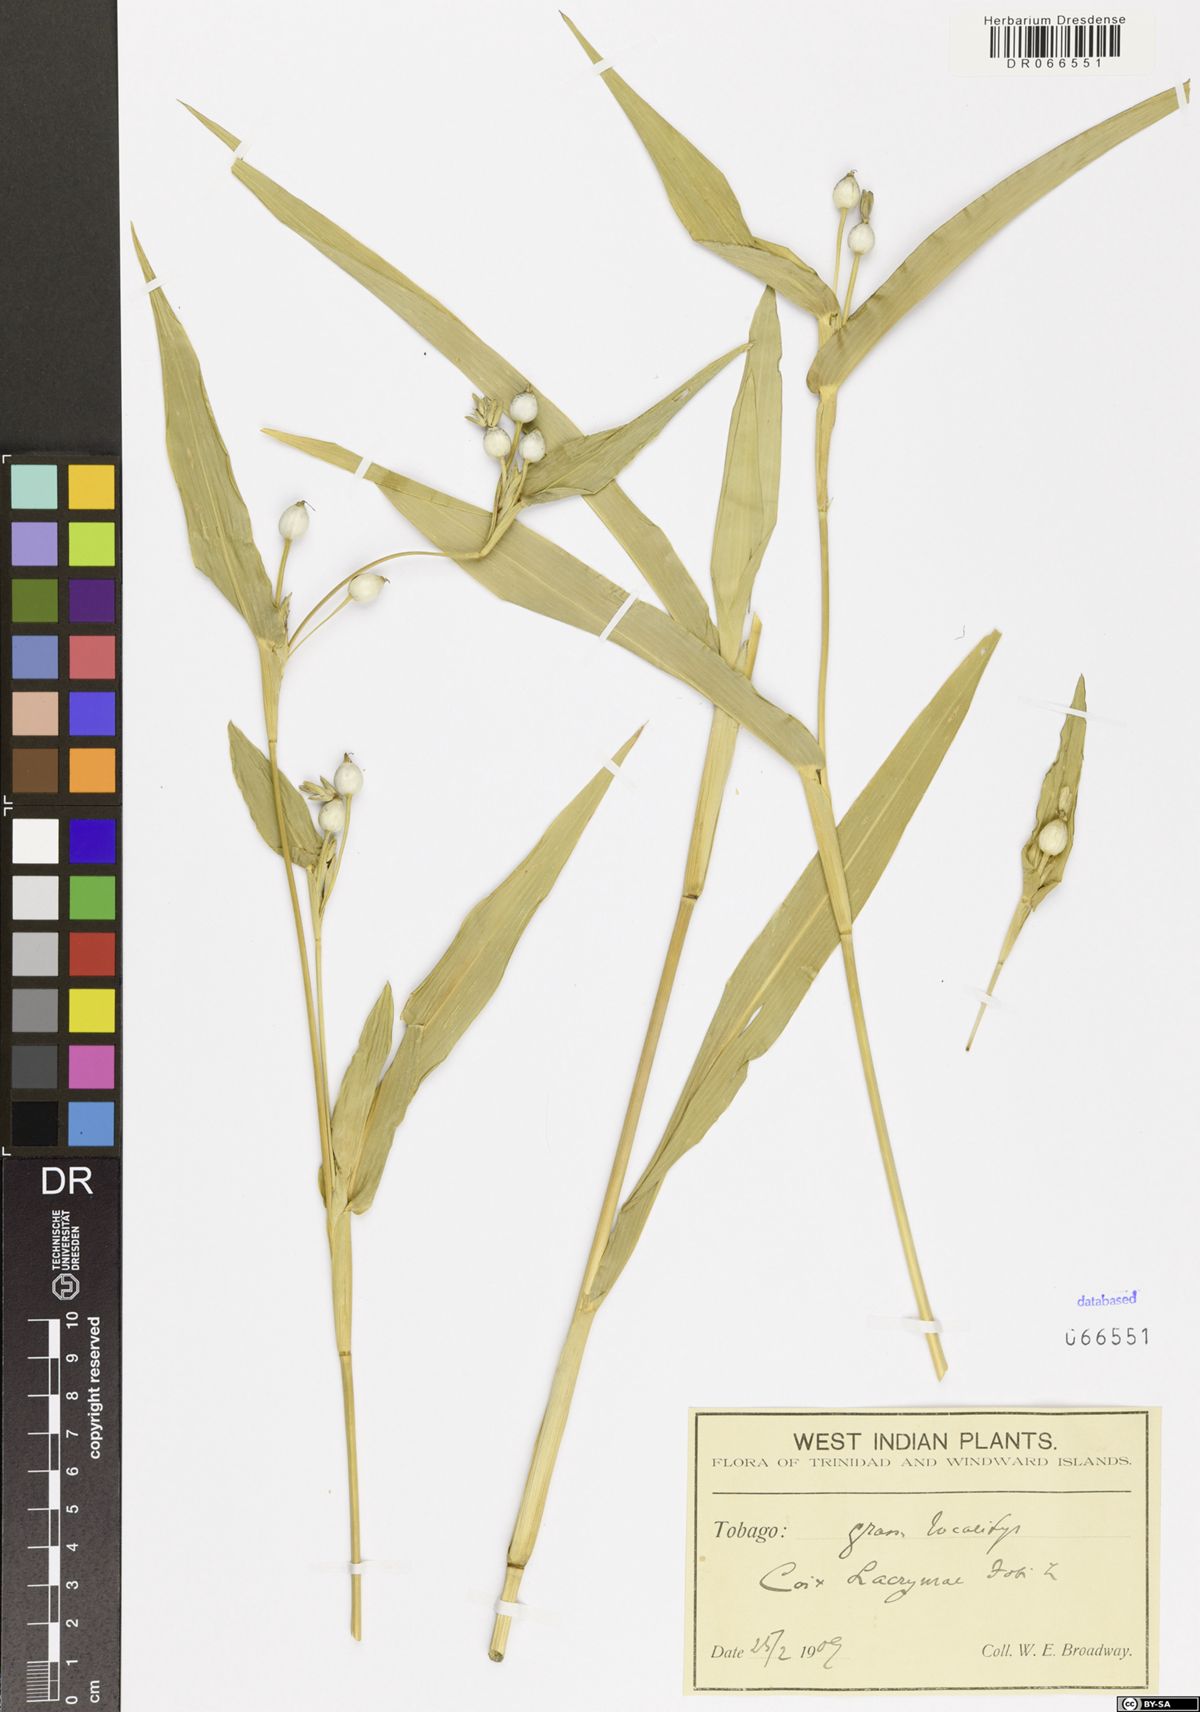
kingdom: Plantae
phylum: Tracheophyta
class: Liliopsida
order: Poales
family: Poaceae
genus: Coix
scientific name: Coix lacryma-jobi
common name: Job's tears
